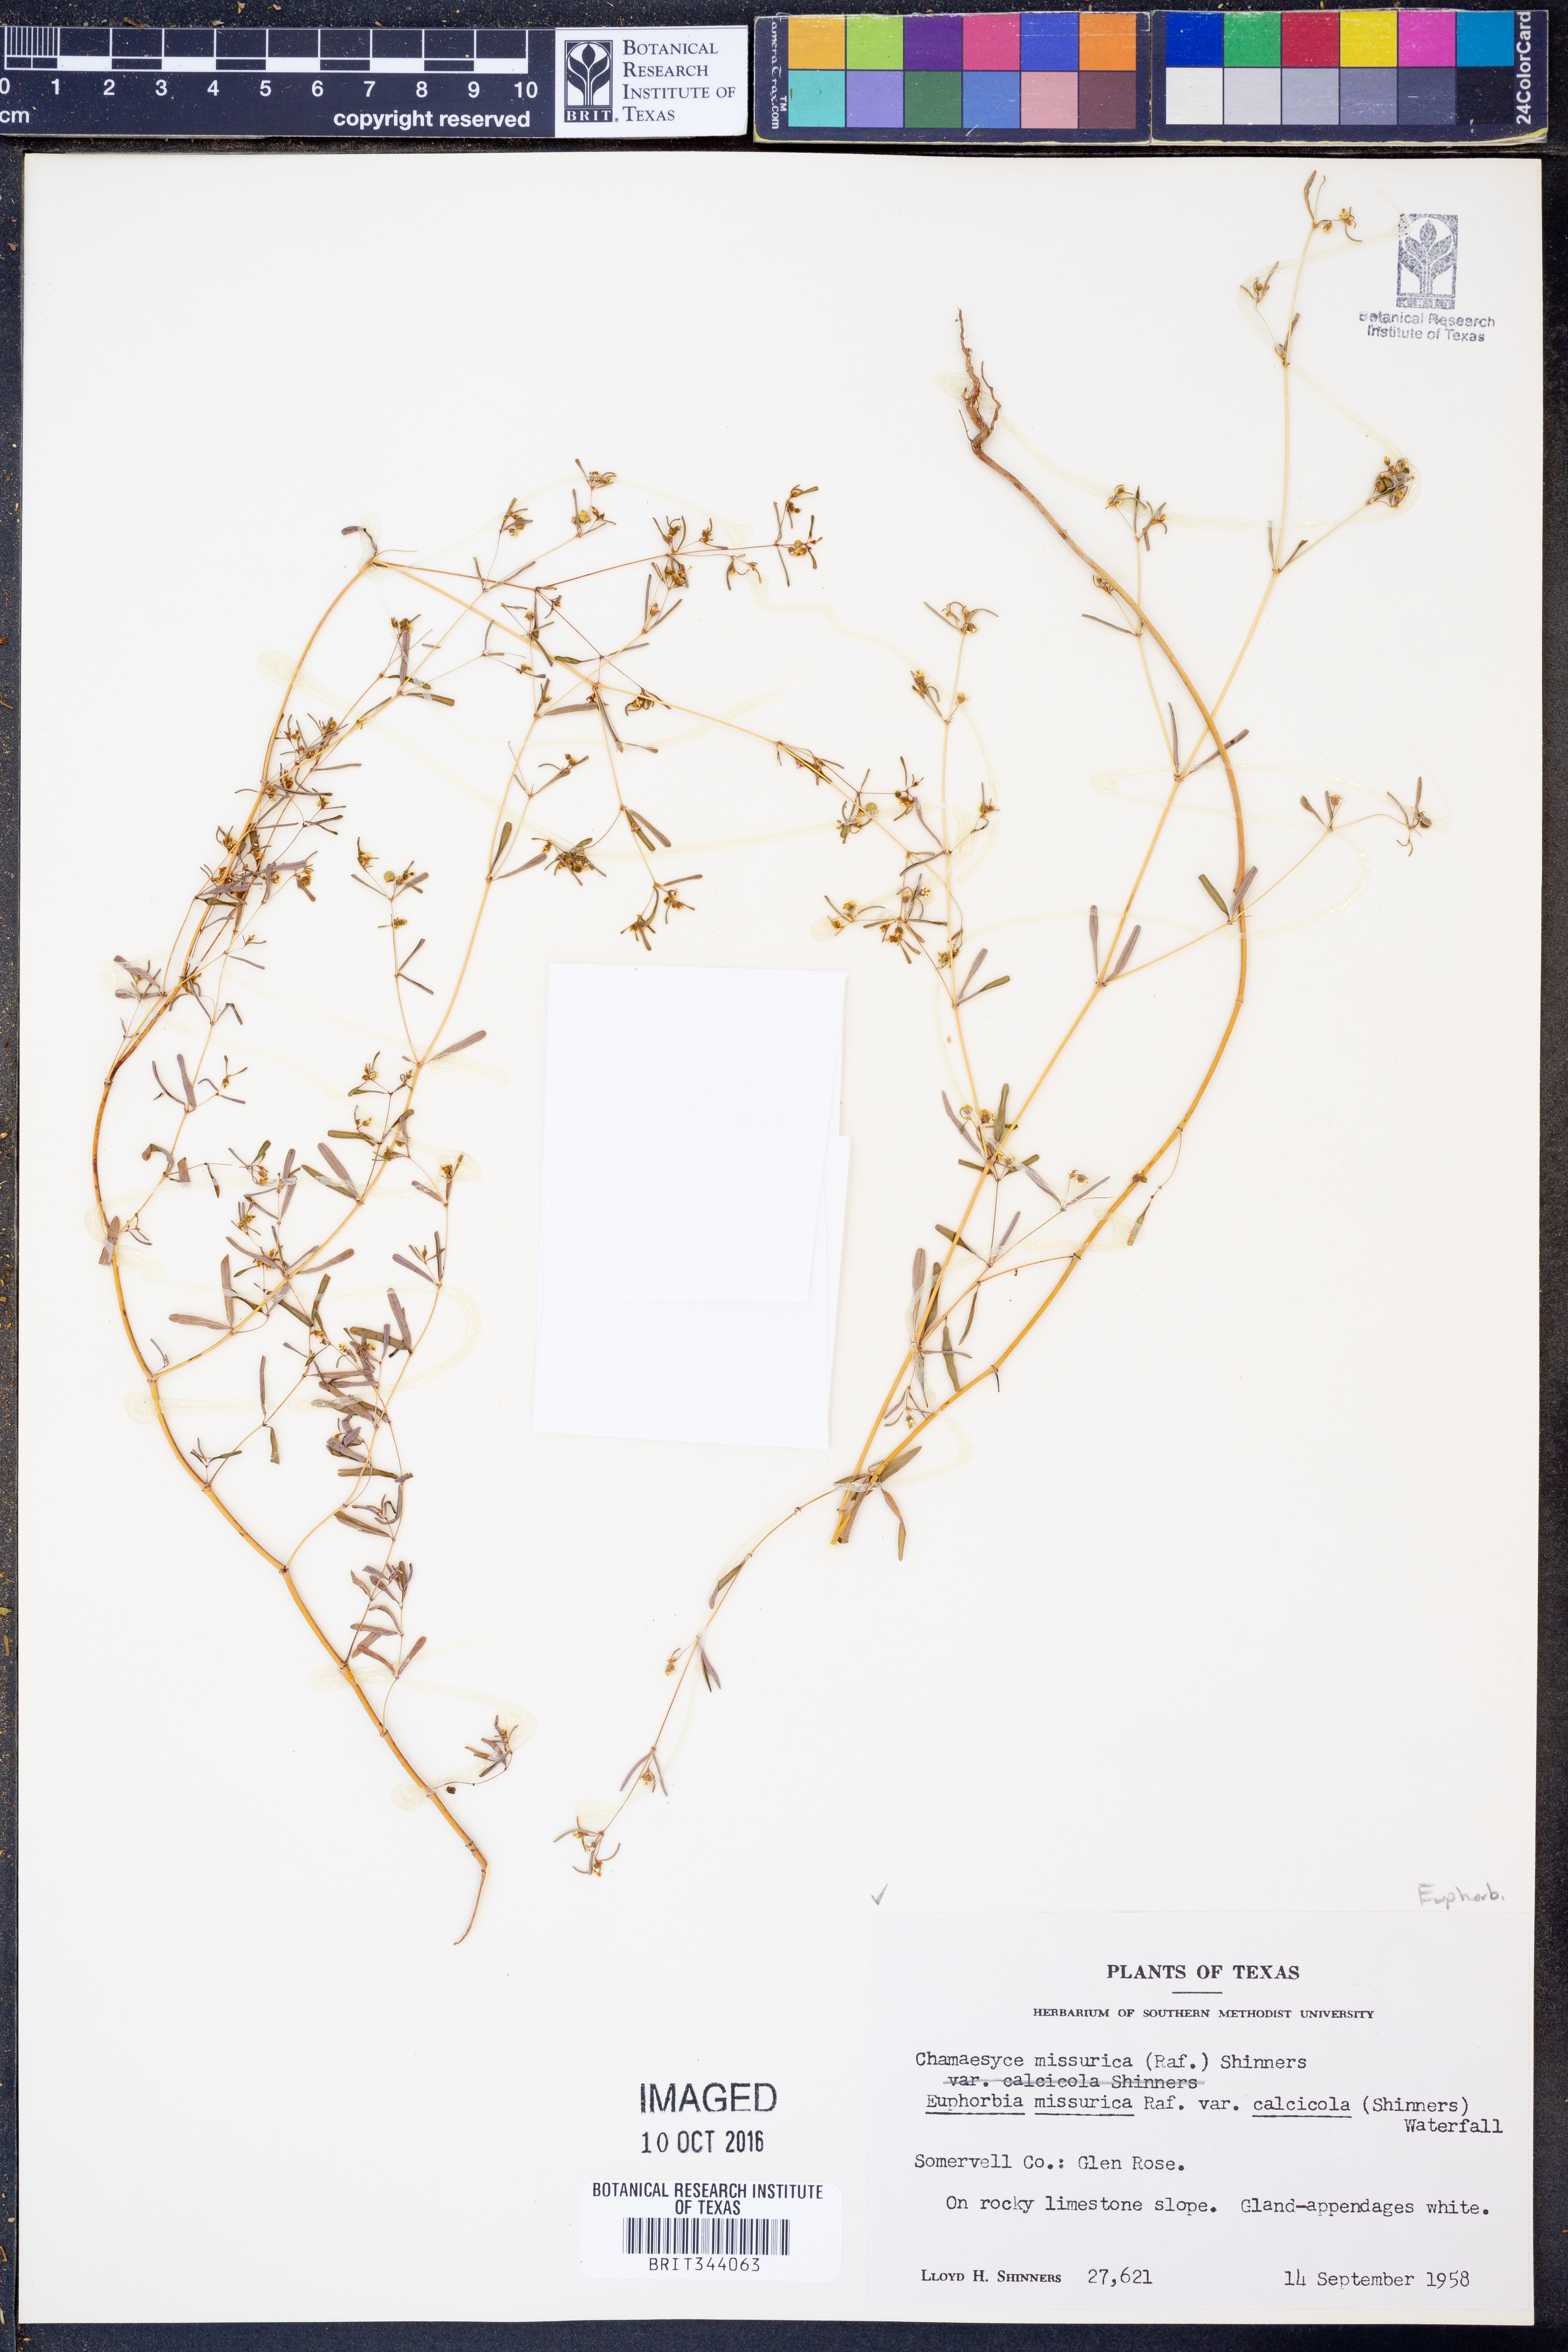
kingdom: Plantae
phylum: Tracheophyta
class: Magnoliopsida
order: Malpighiales
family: Euphorbiaceae
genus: Euphorbia
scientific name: Euphorbia missurica
